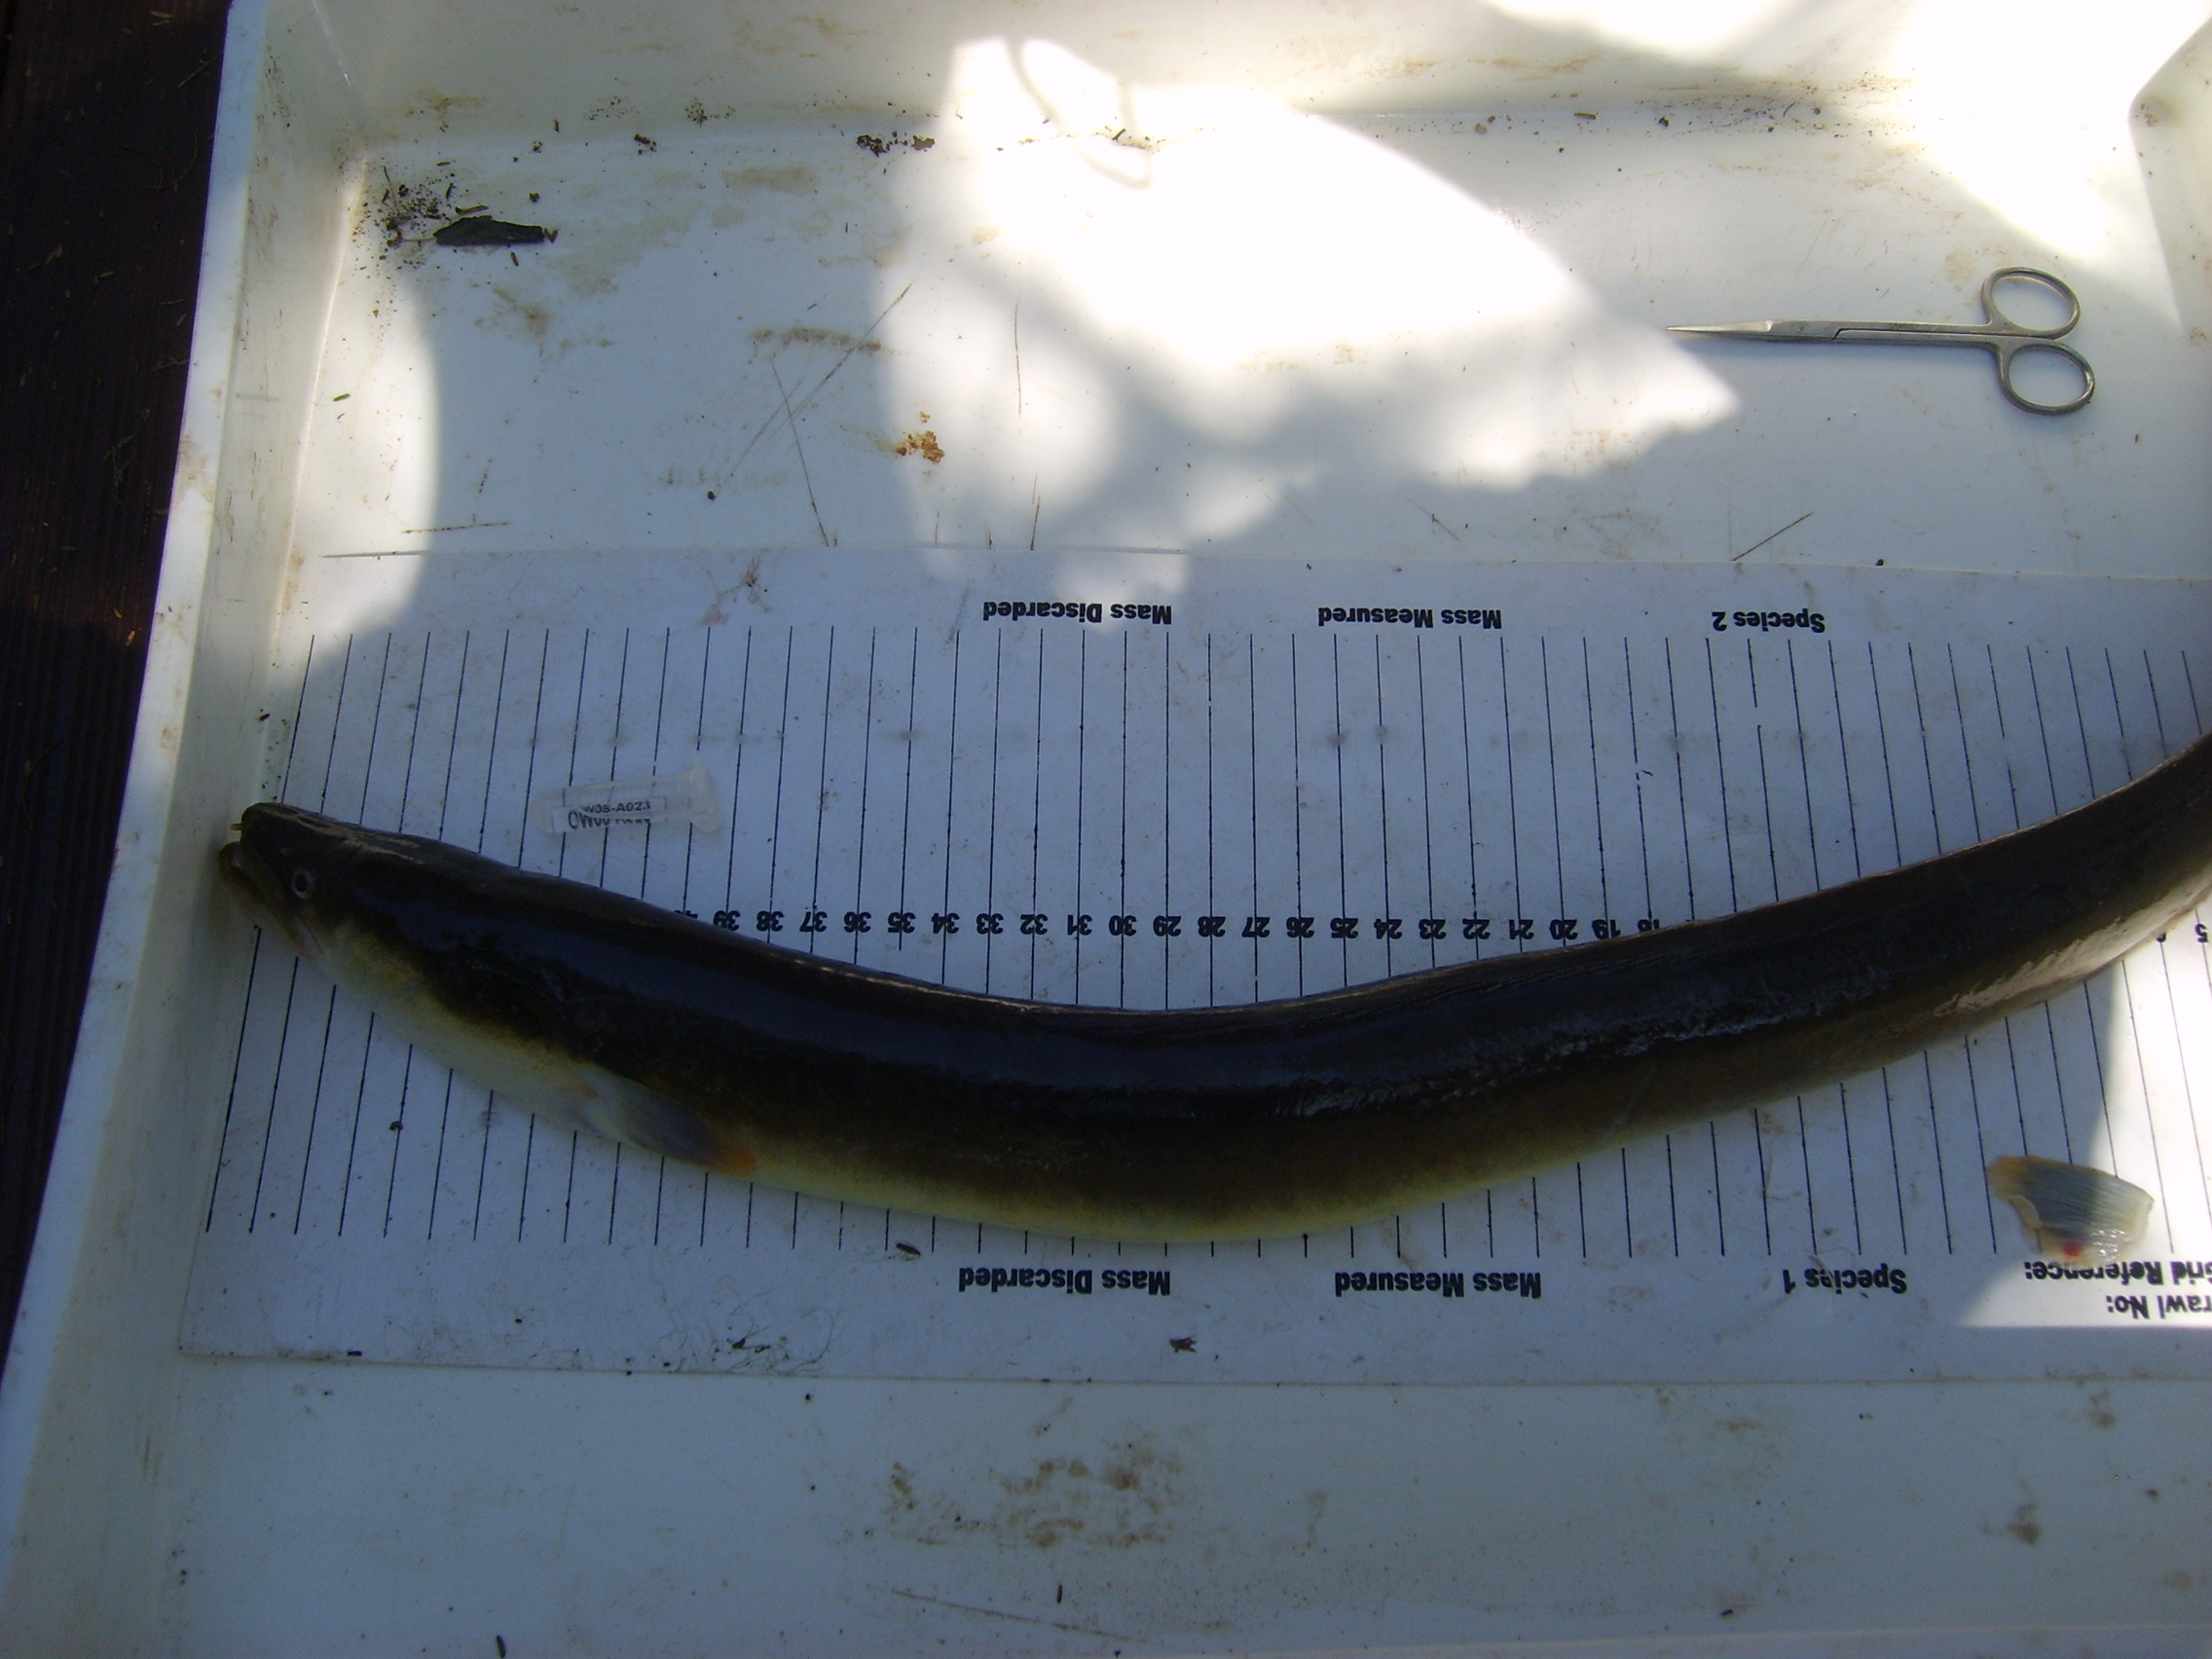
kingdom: Animalia
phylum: Chordata
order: Anguilliformes
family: Anguillidae
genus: Anguilla
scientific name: Anguilla mossambica
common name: African longfin eel
